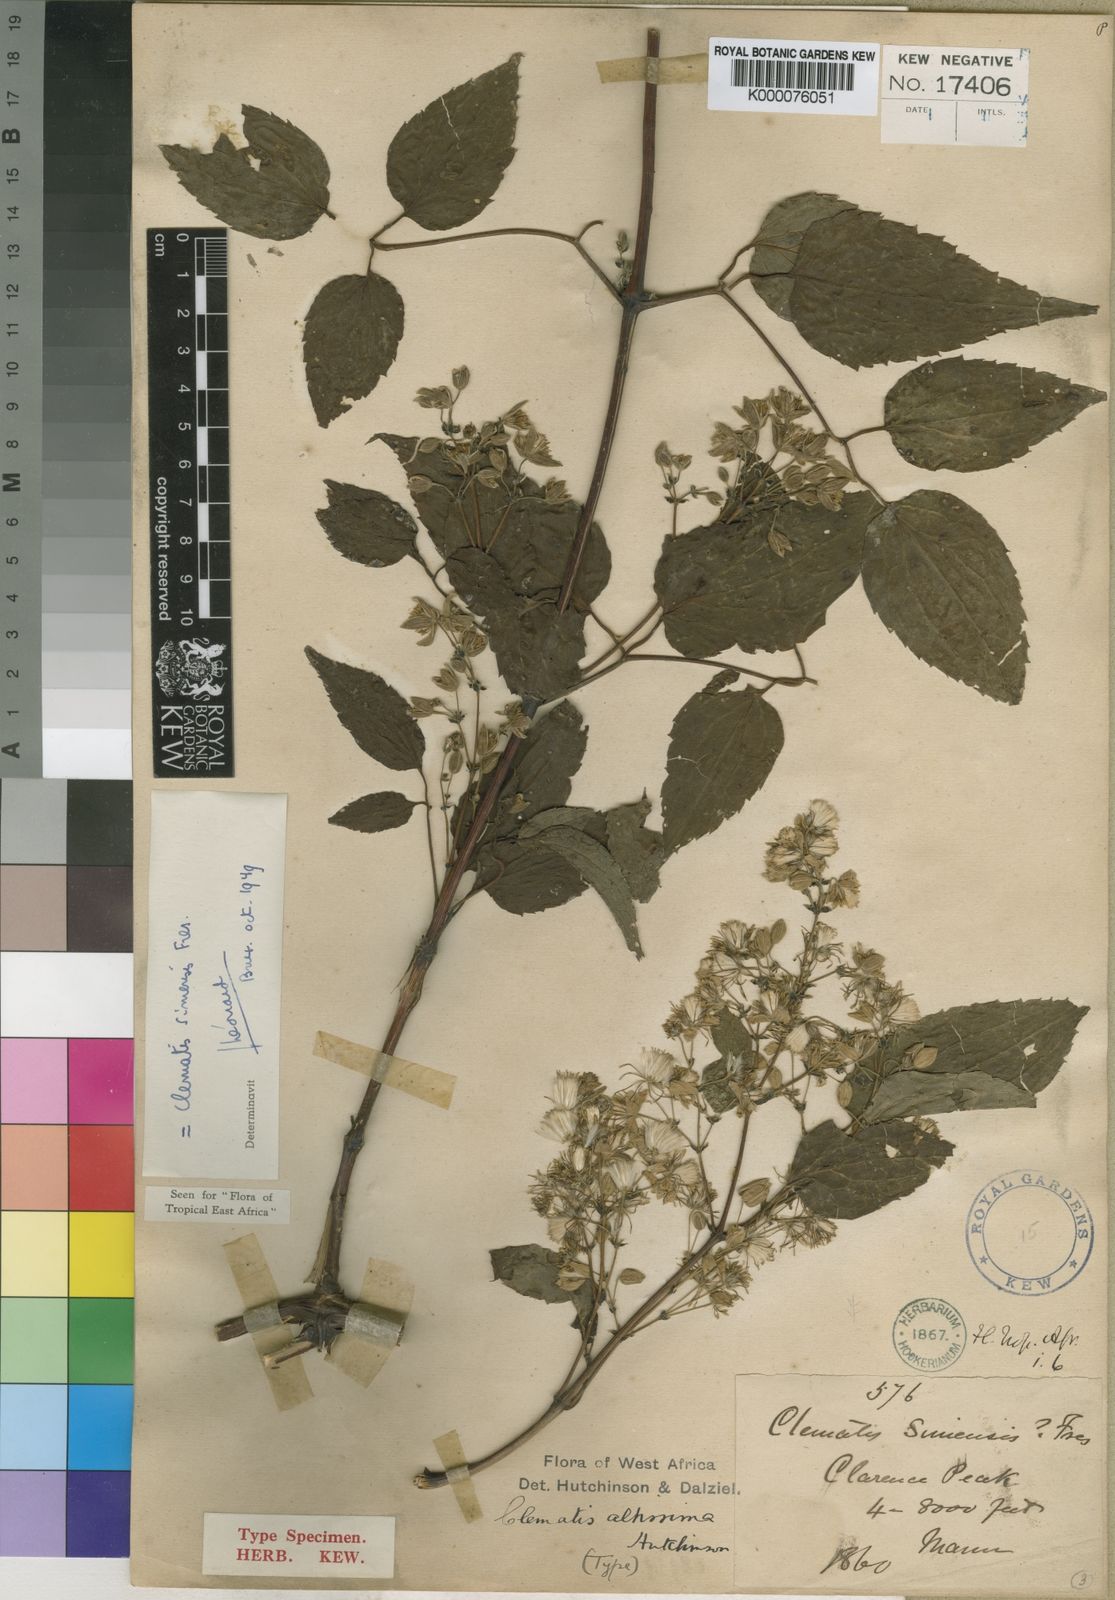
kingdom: Plantae
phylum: Tracheophyta
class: Magnoliopsida
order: Ranunculales
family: Ranunculaceae
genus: Clematis
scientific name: Clematis simensis
